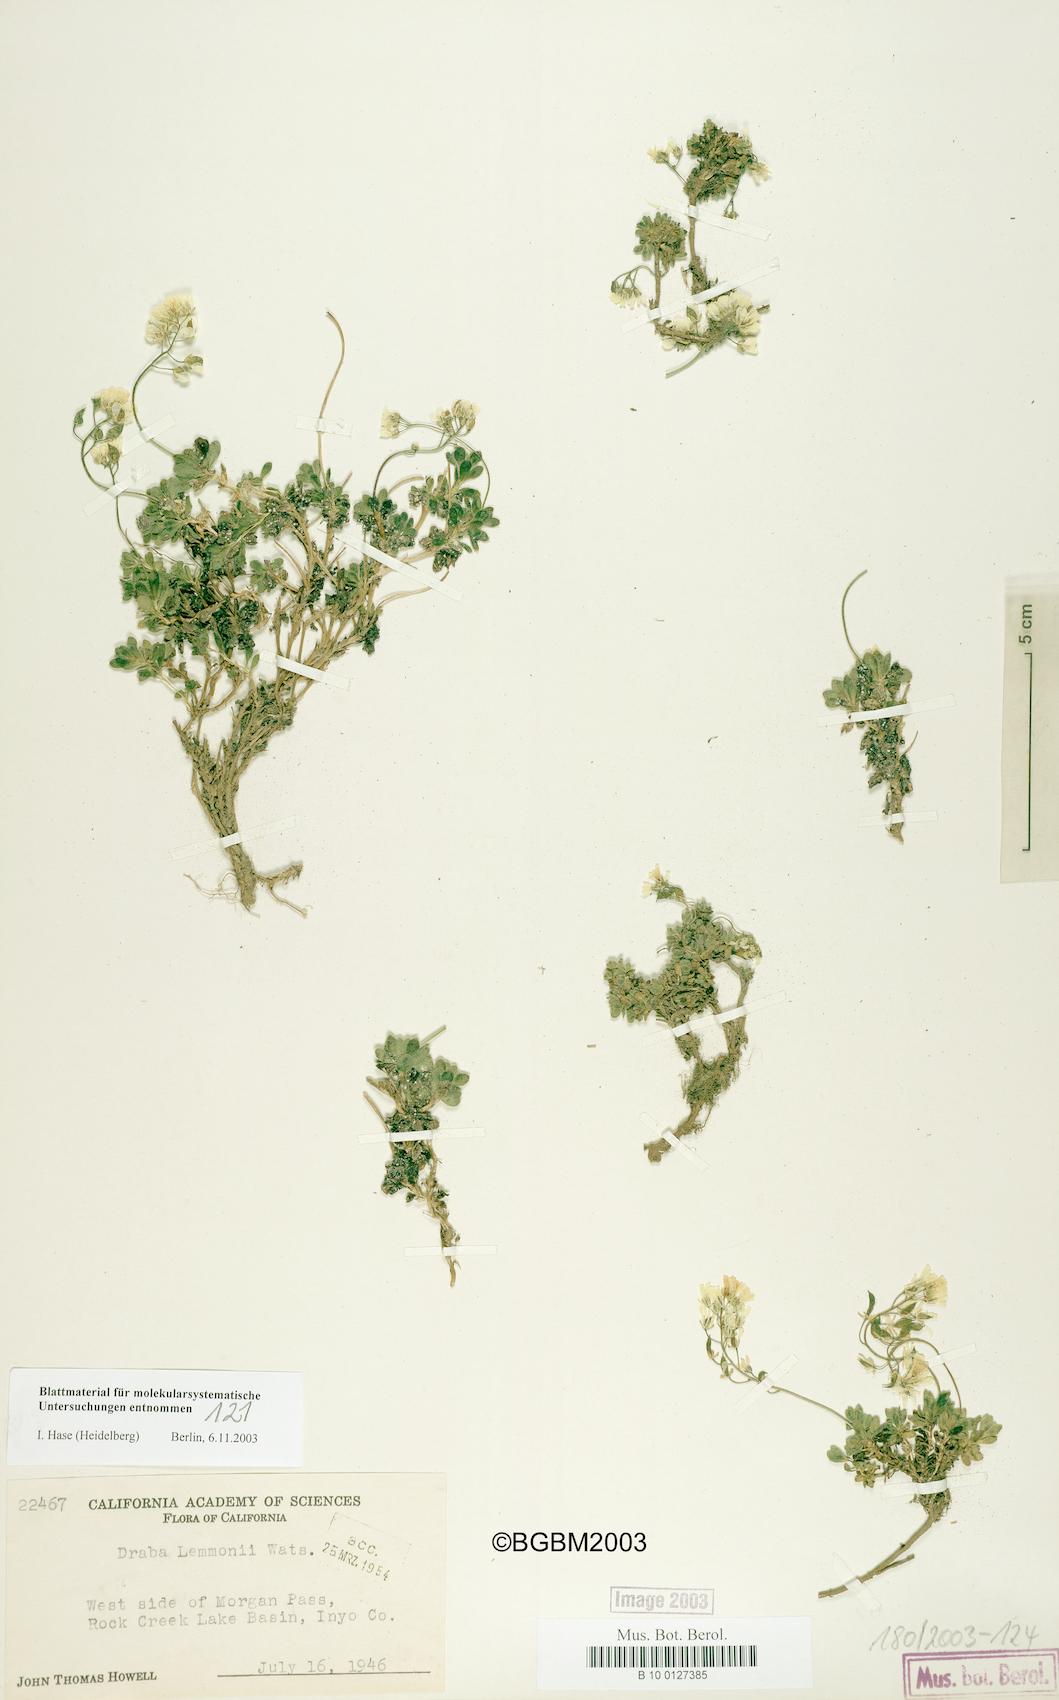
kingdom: Plantae
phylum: Tracheophyta
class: Magnoliopsida
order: Brassicales
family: Brassicaceae
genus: Draba
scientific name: Draba lemmonii
